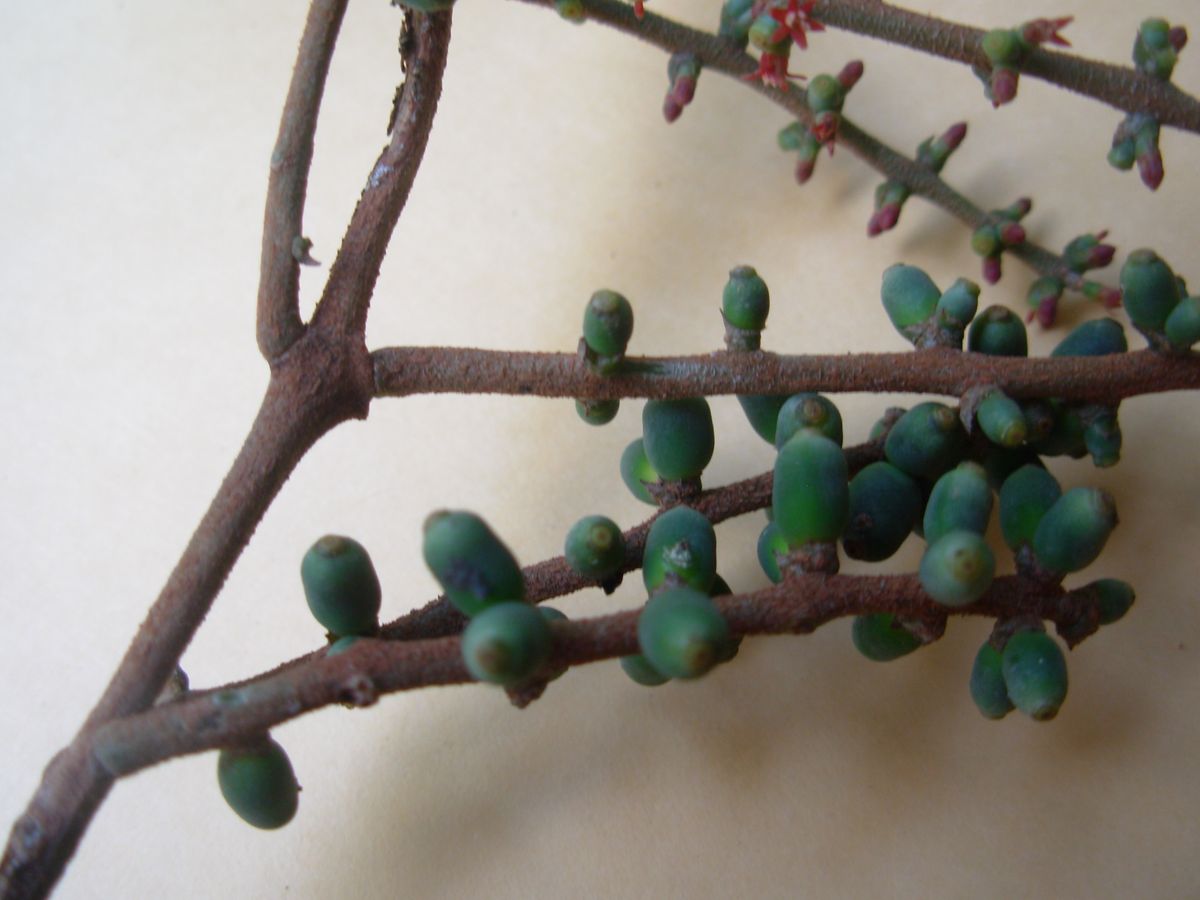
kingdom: Plantae
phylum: Tracheophyta
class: Magnoliopsida
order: Santalales
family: Loranthaceae
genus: Passovia
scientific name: Passovia pyrifolia
